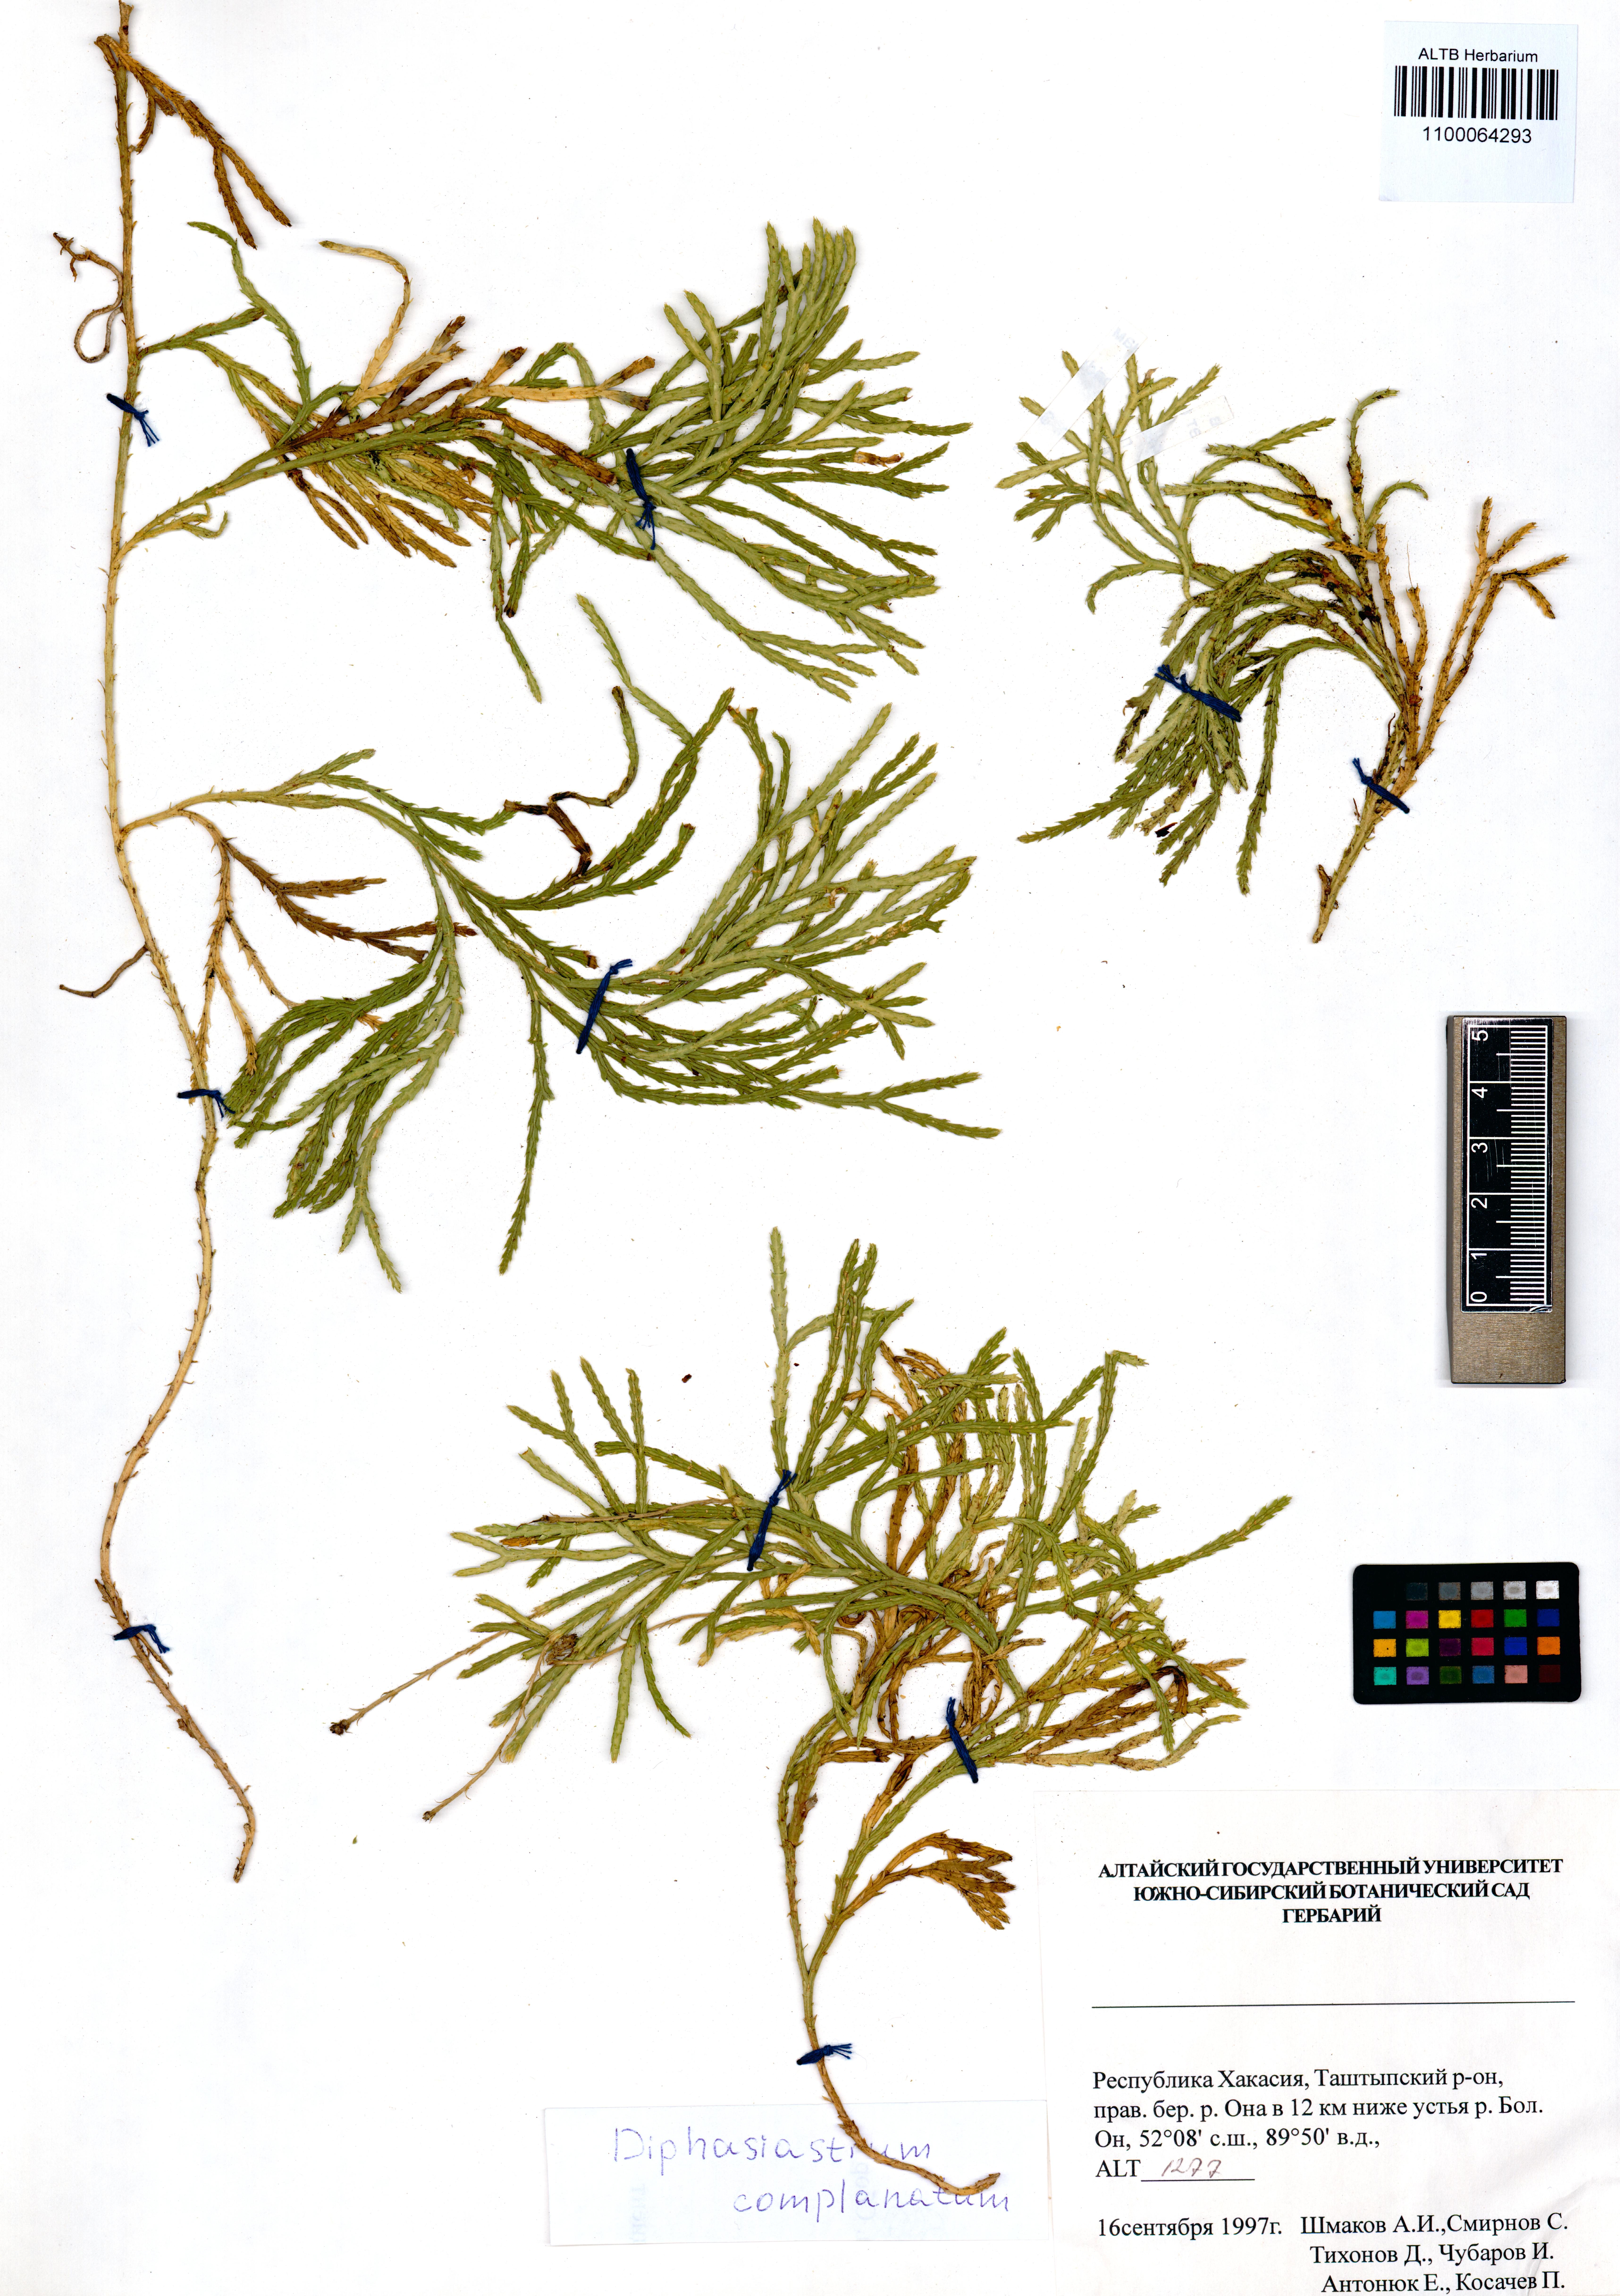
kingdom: Plantae
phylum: Tracheophyta
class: Lycopodiopsida
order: Lycopodiales
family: Lycopodiaceae
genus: Diphasiastrum
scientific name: Diphasiastrum complanatum
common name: Northern running-pine
